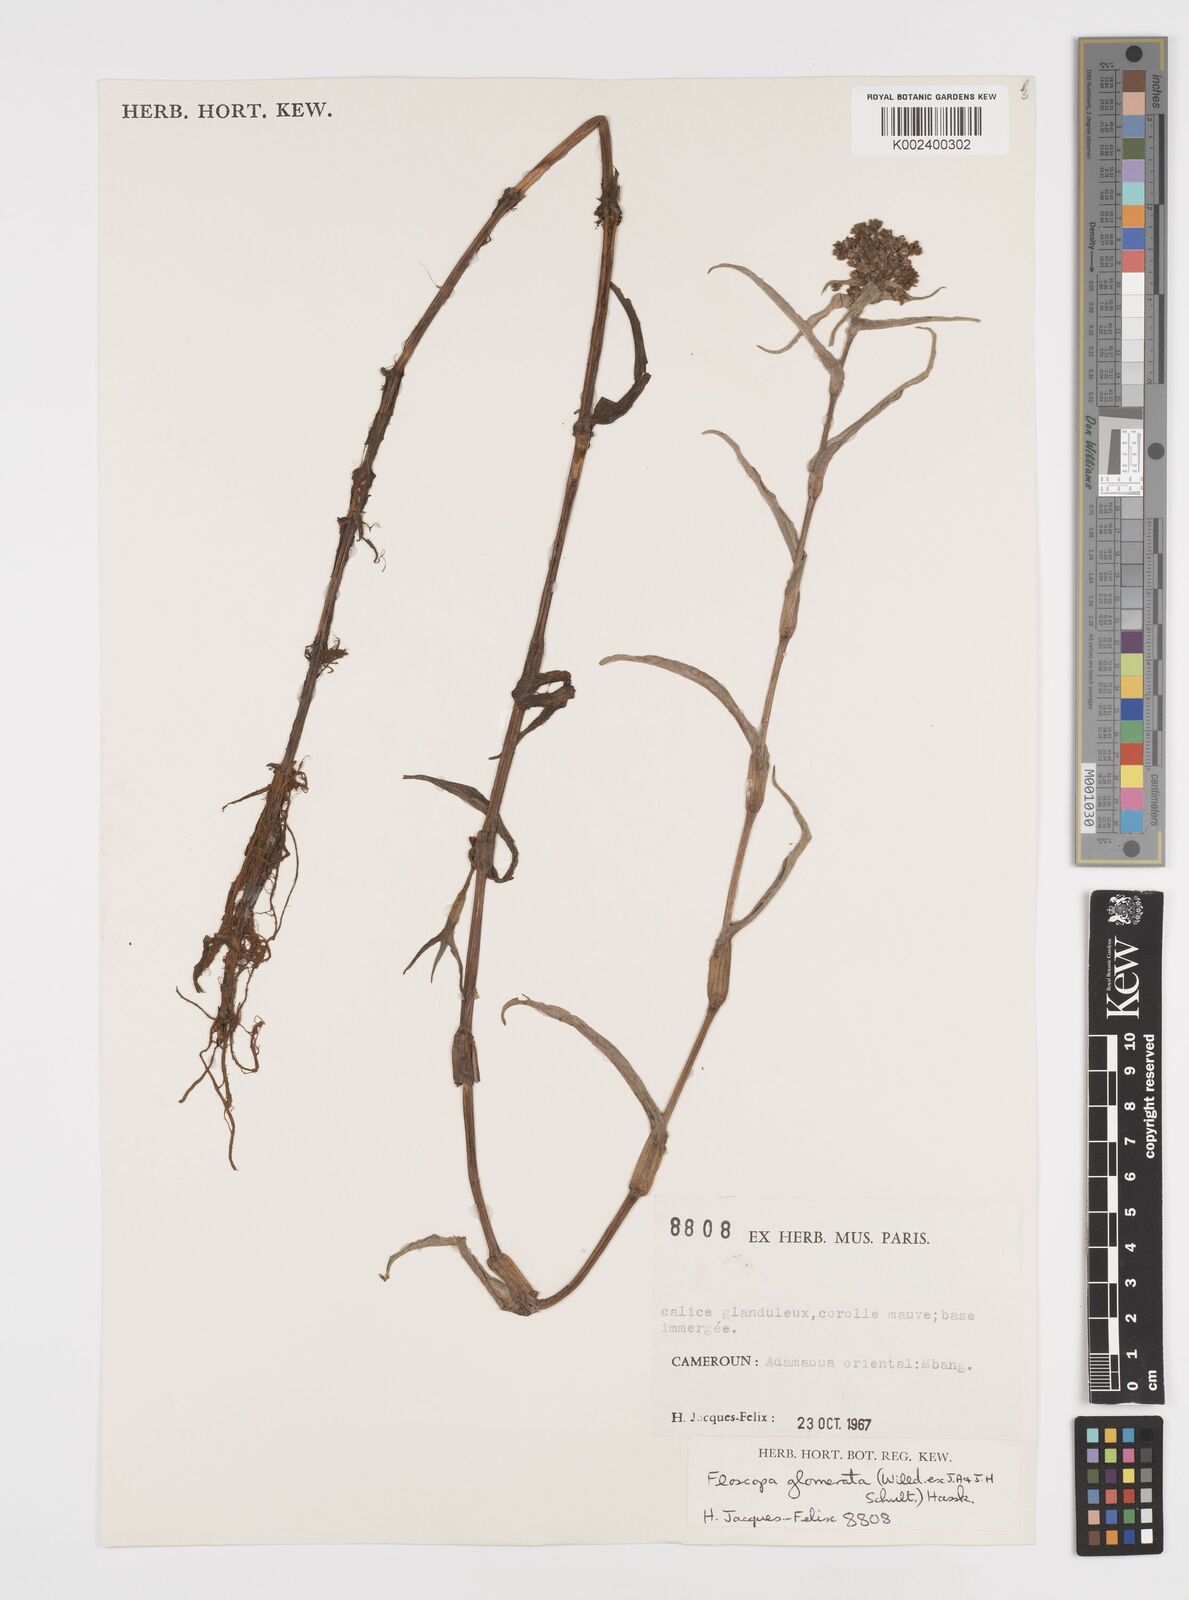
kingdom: Plantae
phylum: Tracheophyta
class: Liliopsida
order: Commelinales
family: Commelinaceae
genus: Floscopa
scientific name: Floscopa glomerata
